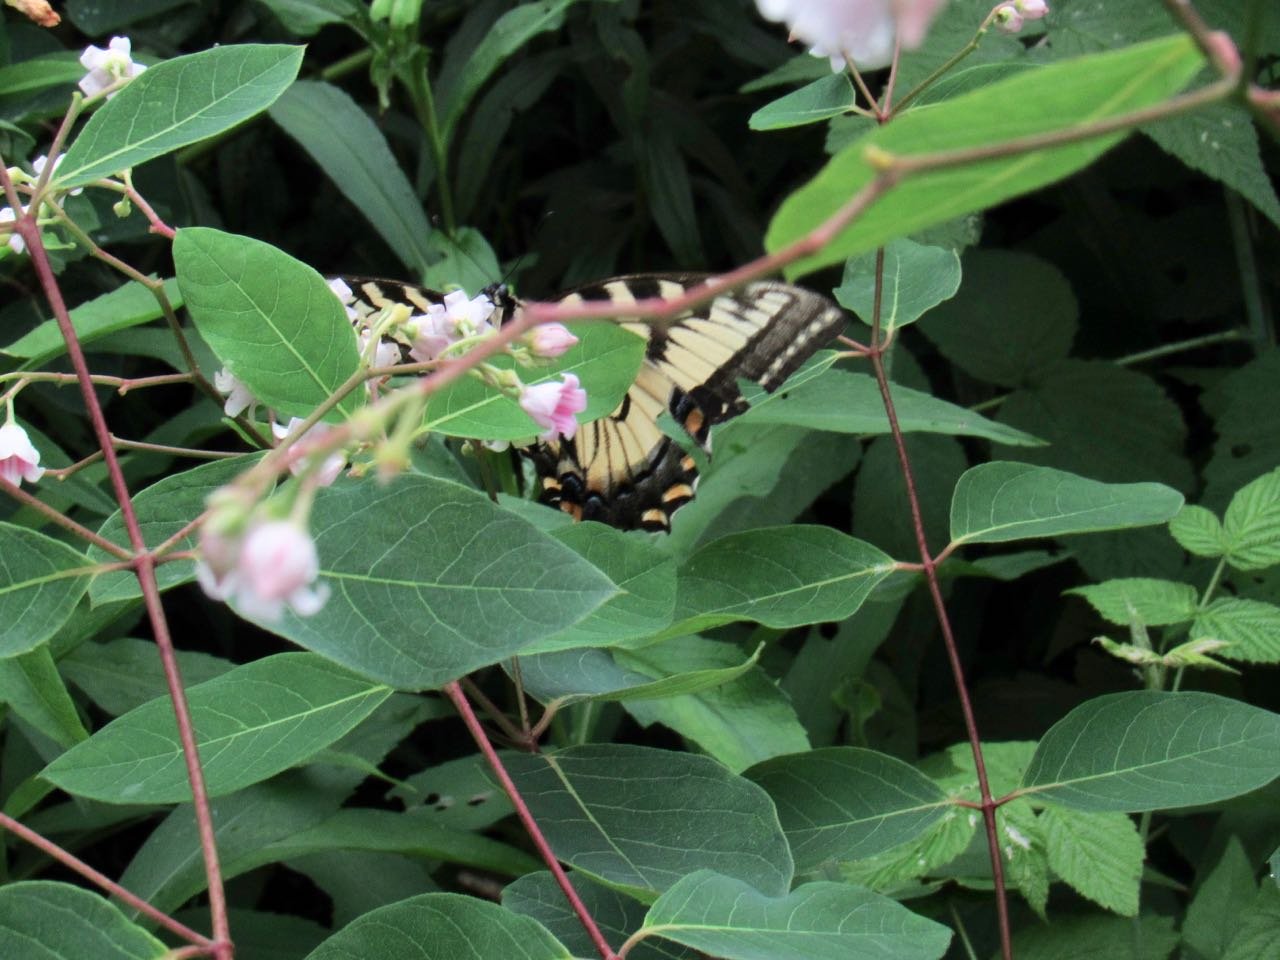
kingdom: Animalia
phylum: Arthropoda
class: Insecta
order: Lepidoptera
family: Papilionidae
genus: Pterourus
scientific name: Pterourus
